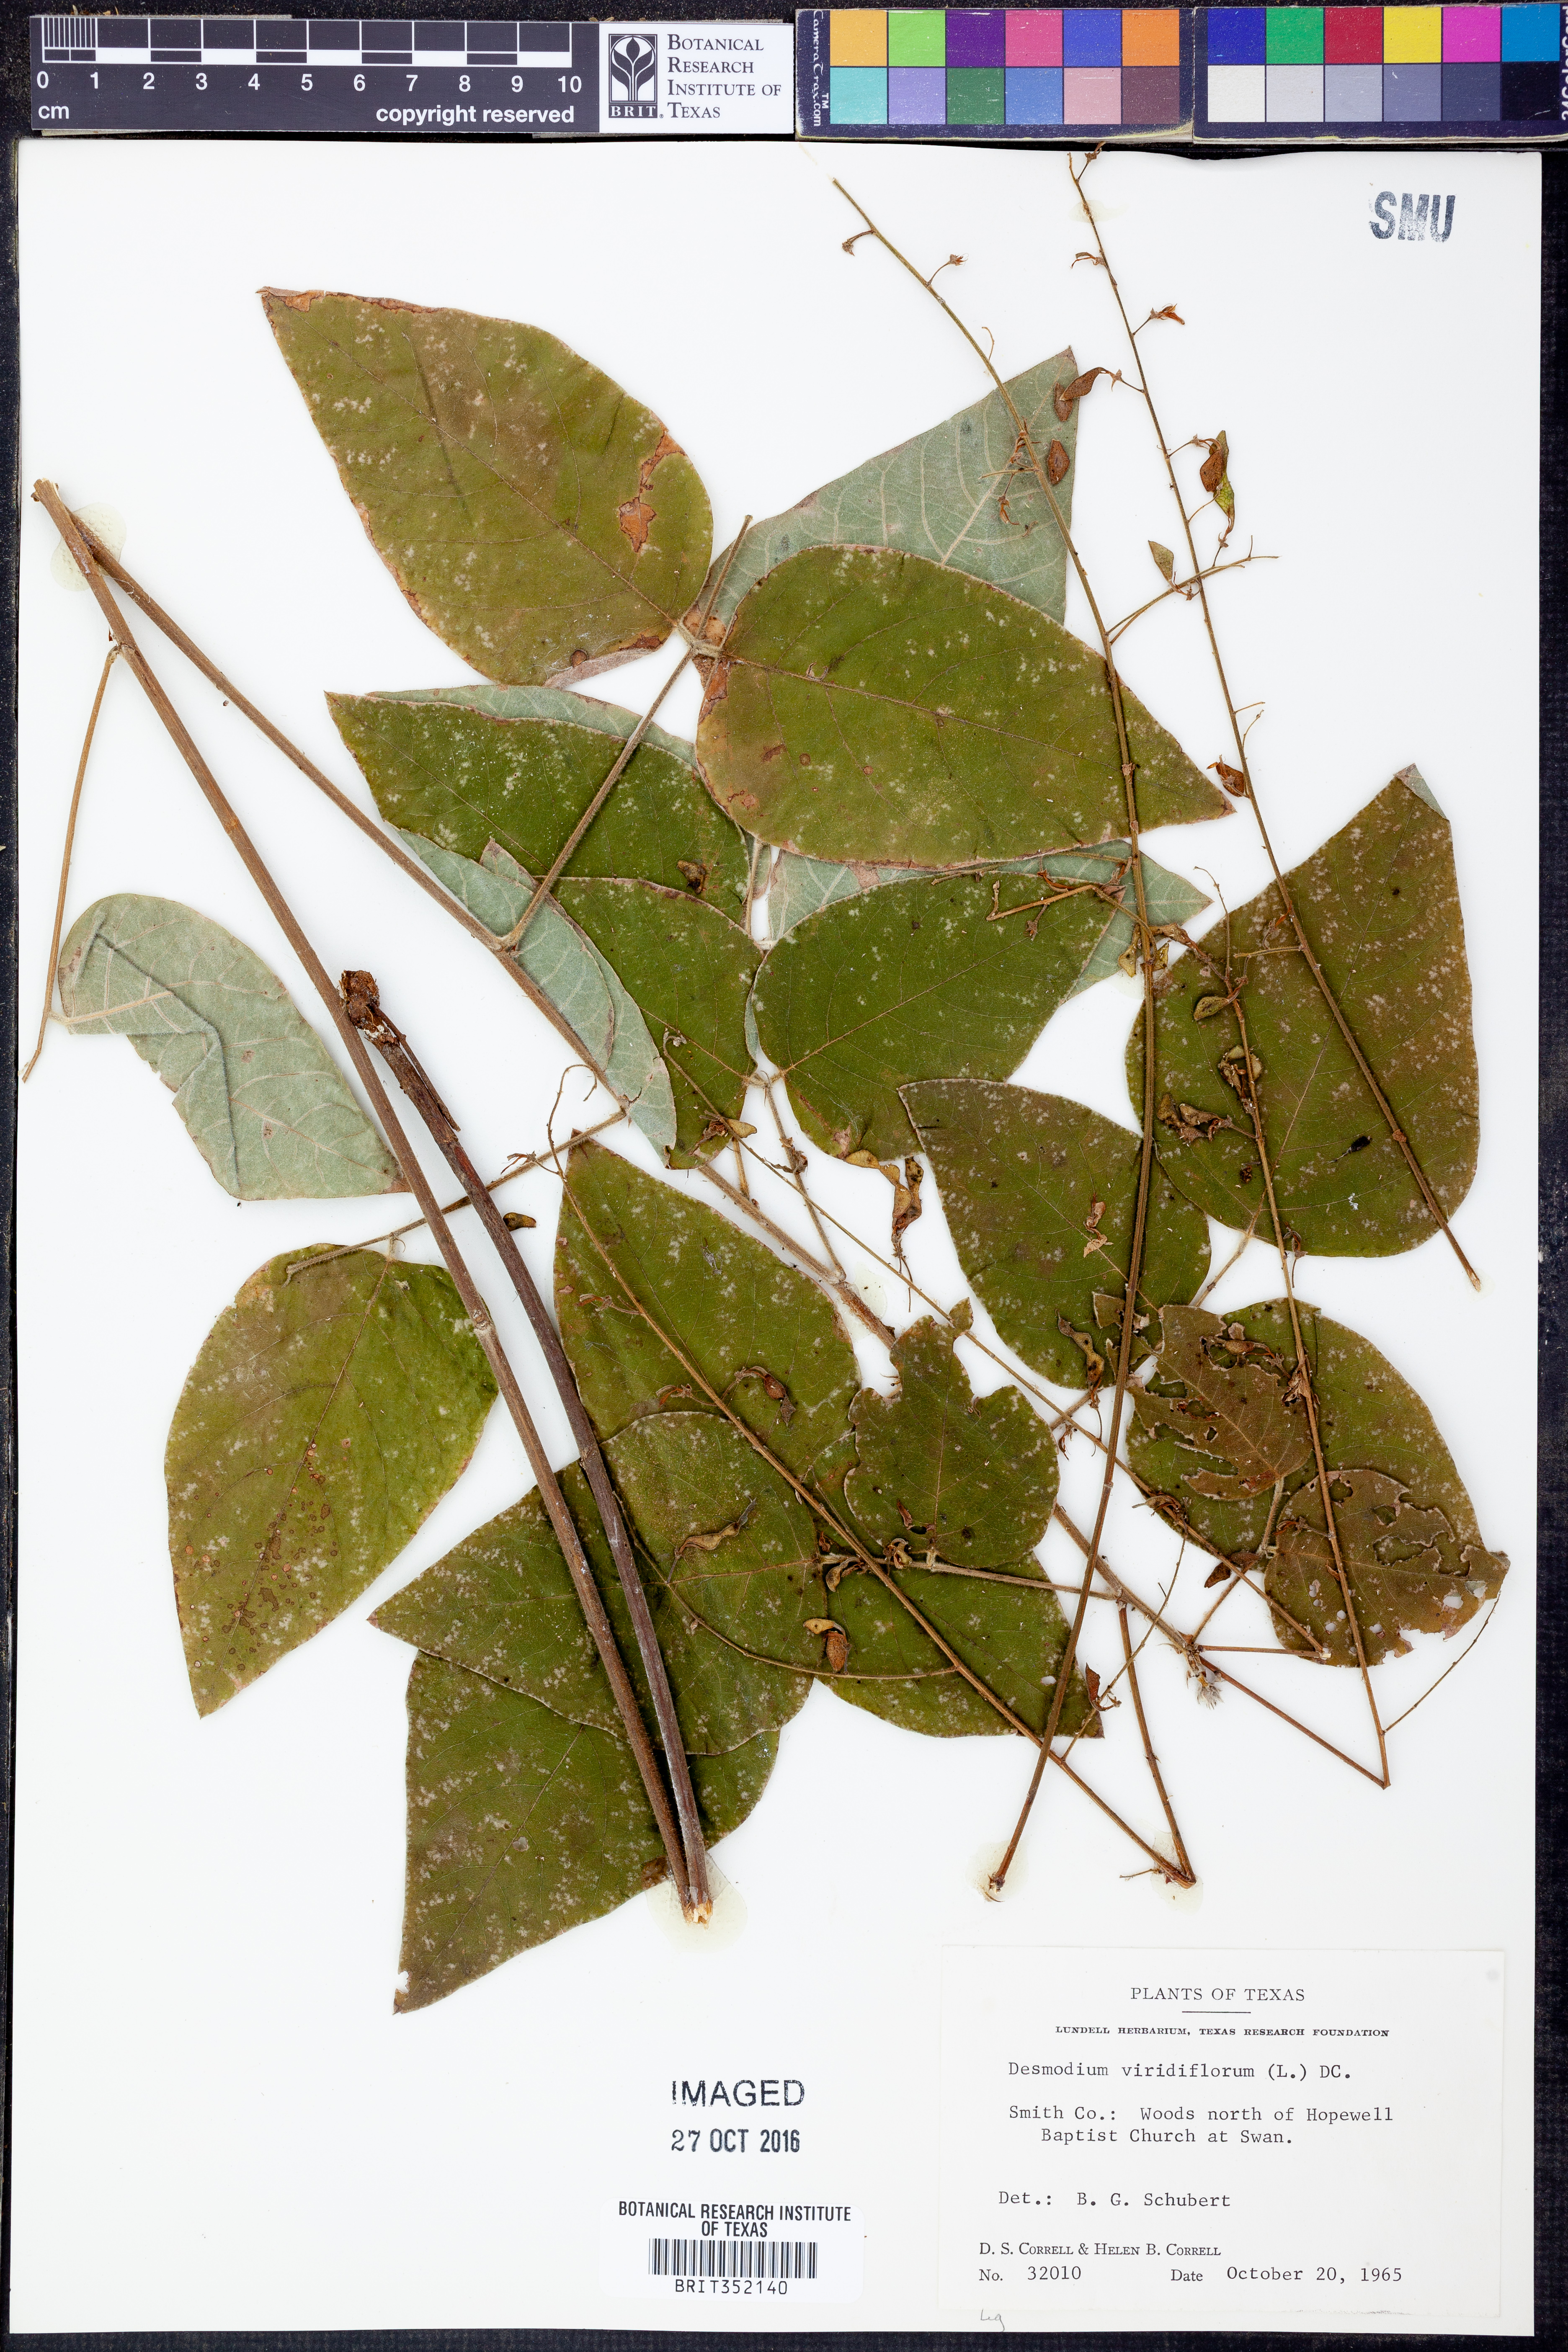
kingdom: Plantae
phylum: Tracheophyta
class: Magnoliopsida
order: Fabales
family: Fabaceae
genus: Desmodium
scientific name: Desmodium viridiflorum
